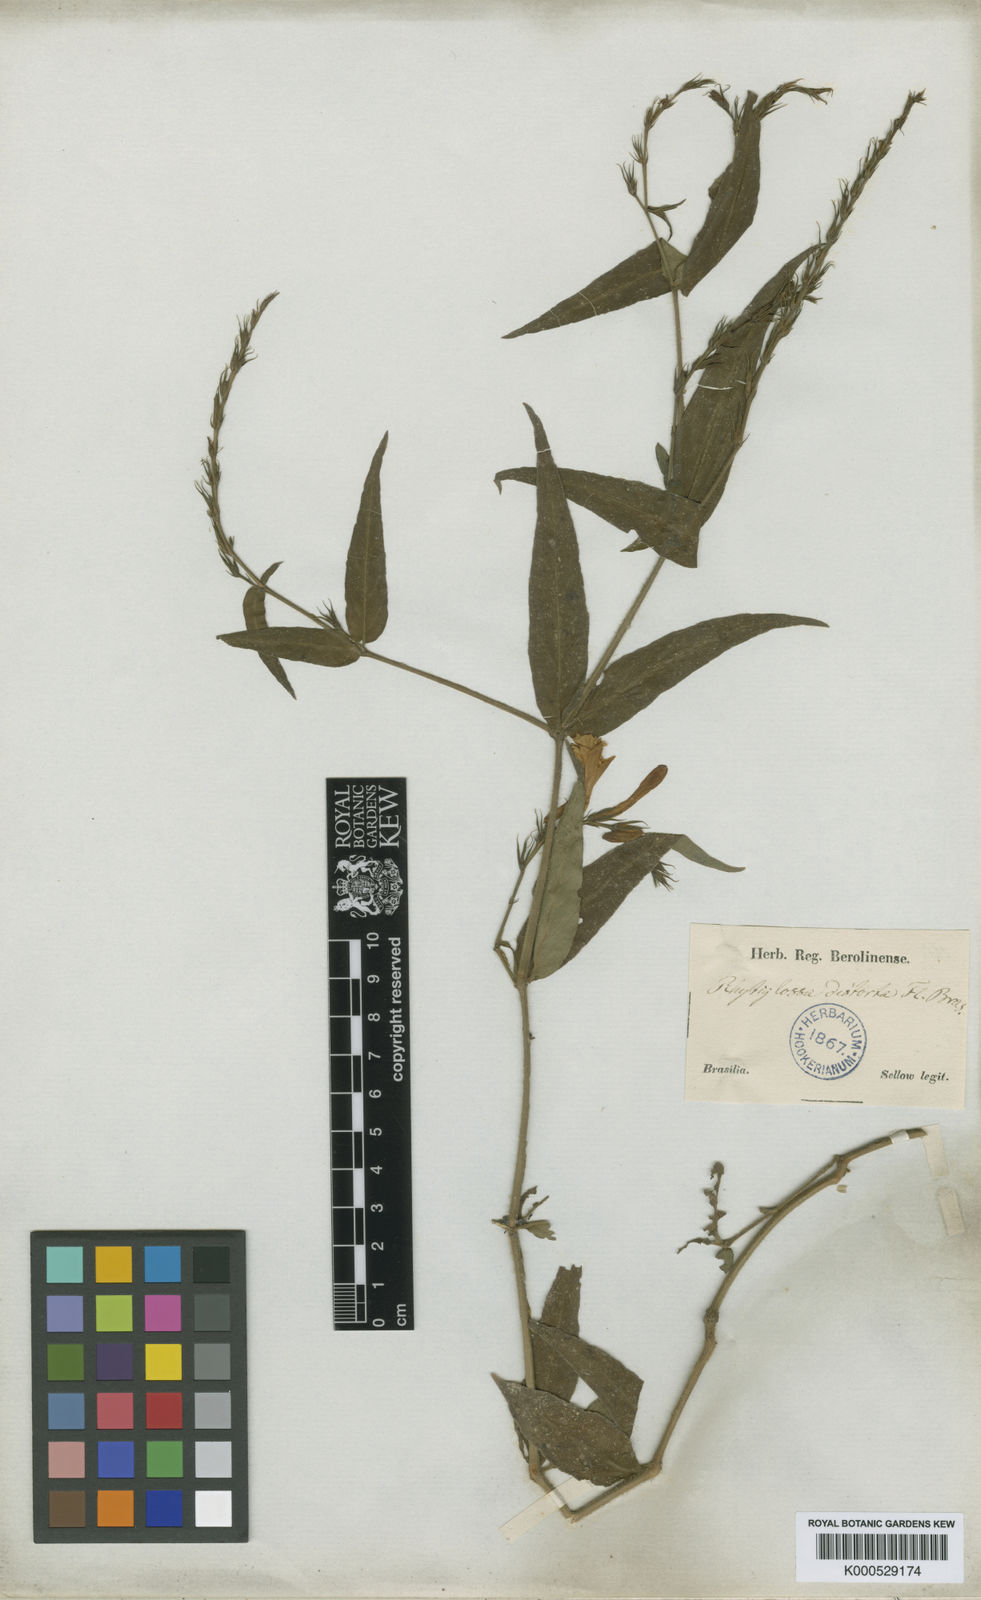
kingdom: Plantae
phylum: Tracheophyta
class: Magnoliopsida
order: Lamiales
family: Acanthaceae
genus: Dianthera
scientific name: Dianthera dasyclados
